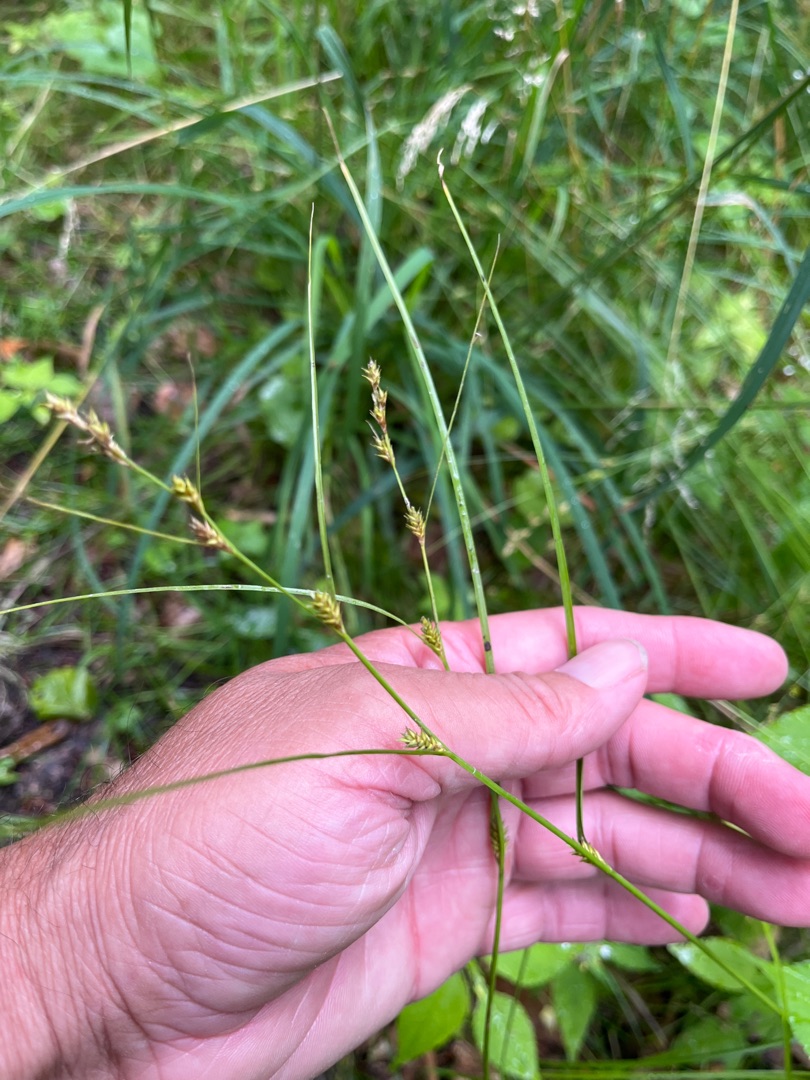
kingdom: Plantae
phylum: Tracheophyta
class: Liliopsida
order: Poales
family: Cyperaceae
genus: Carex
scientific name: Carex remota
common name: Akselblomstret star
